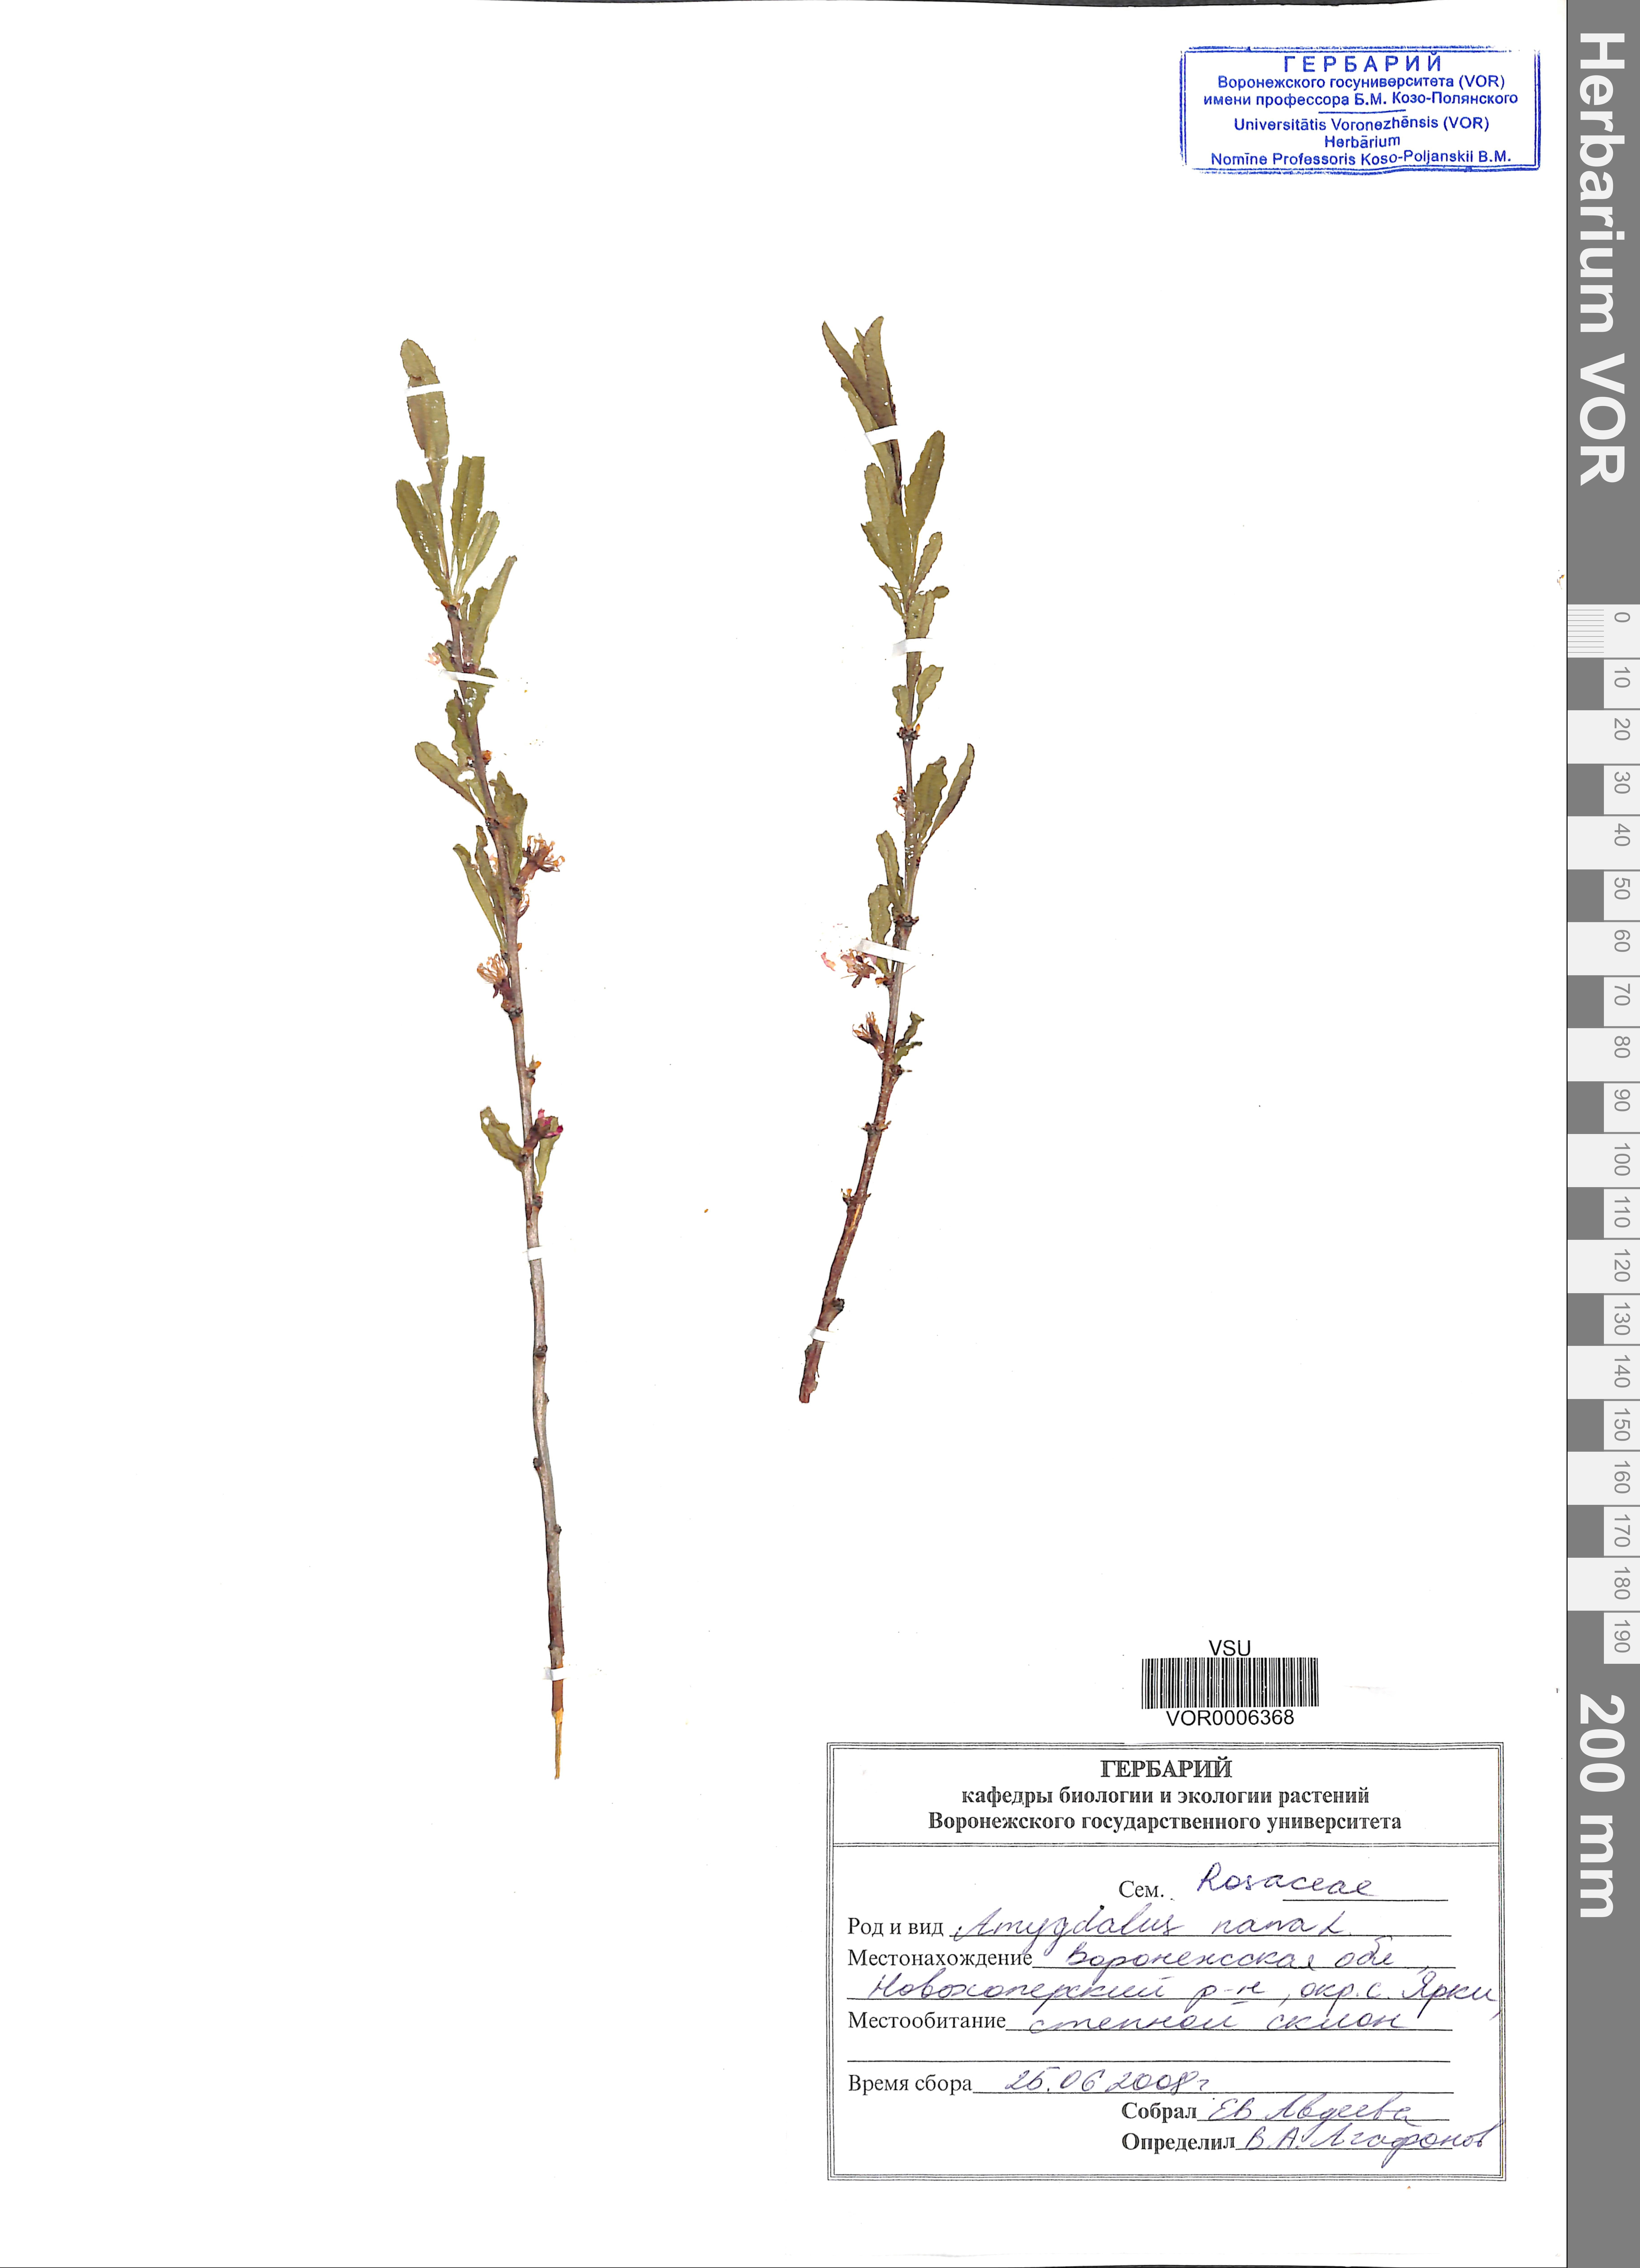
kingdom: Plantae
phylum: Tracheophyta
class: Magnoliopsida
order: Rosales
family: Rosaceae
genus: Prunus
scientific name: Prunus tenella
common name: Dwarf russian almond
